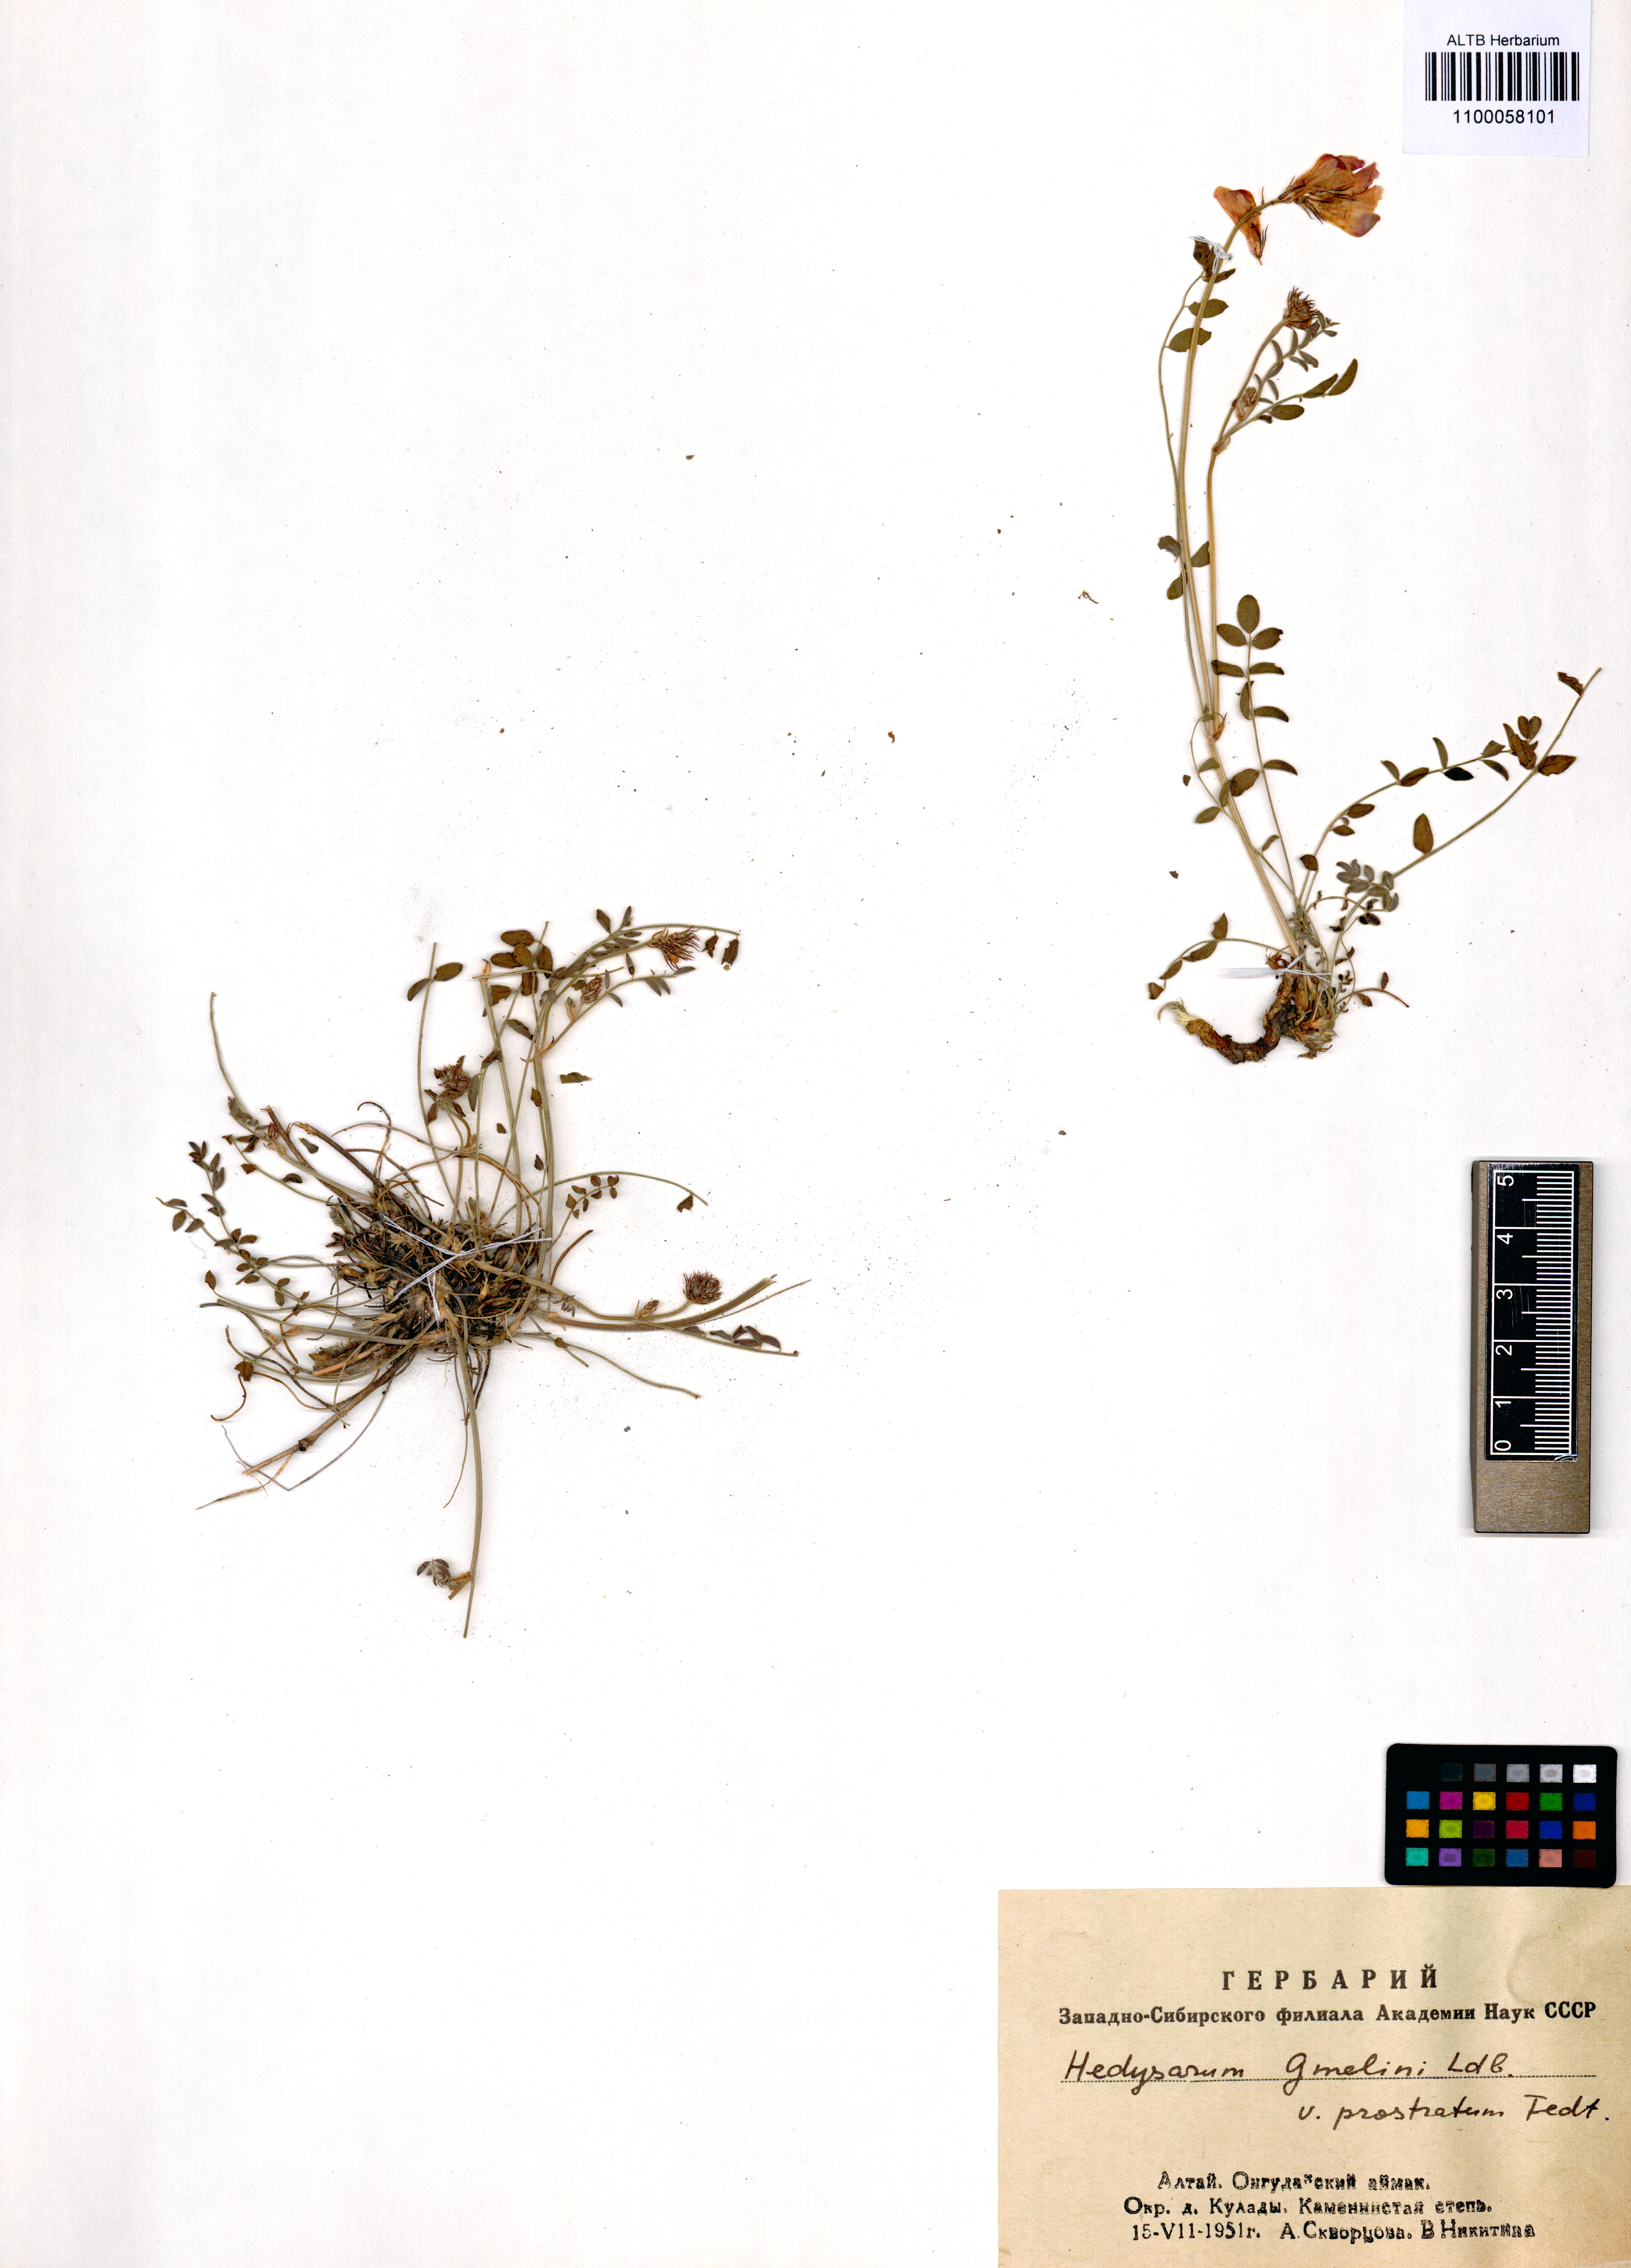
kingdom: Plantae
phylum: Tracheophyta
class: Magnoliopsida
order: Fabales
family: Fabaceae
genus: Hedysarum
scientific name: Hedysarum gmelinii
